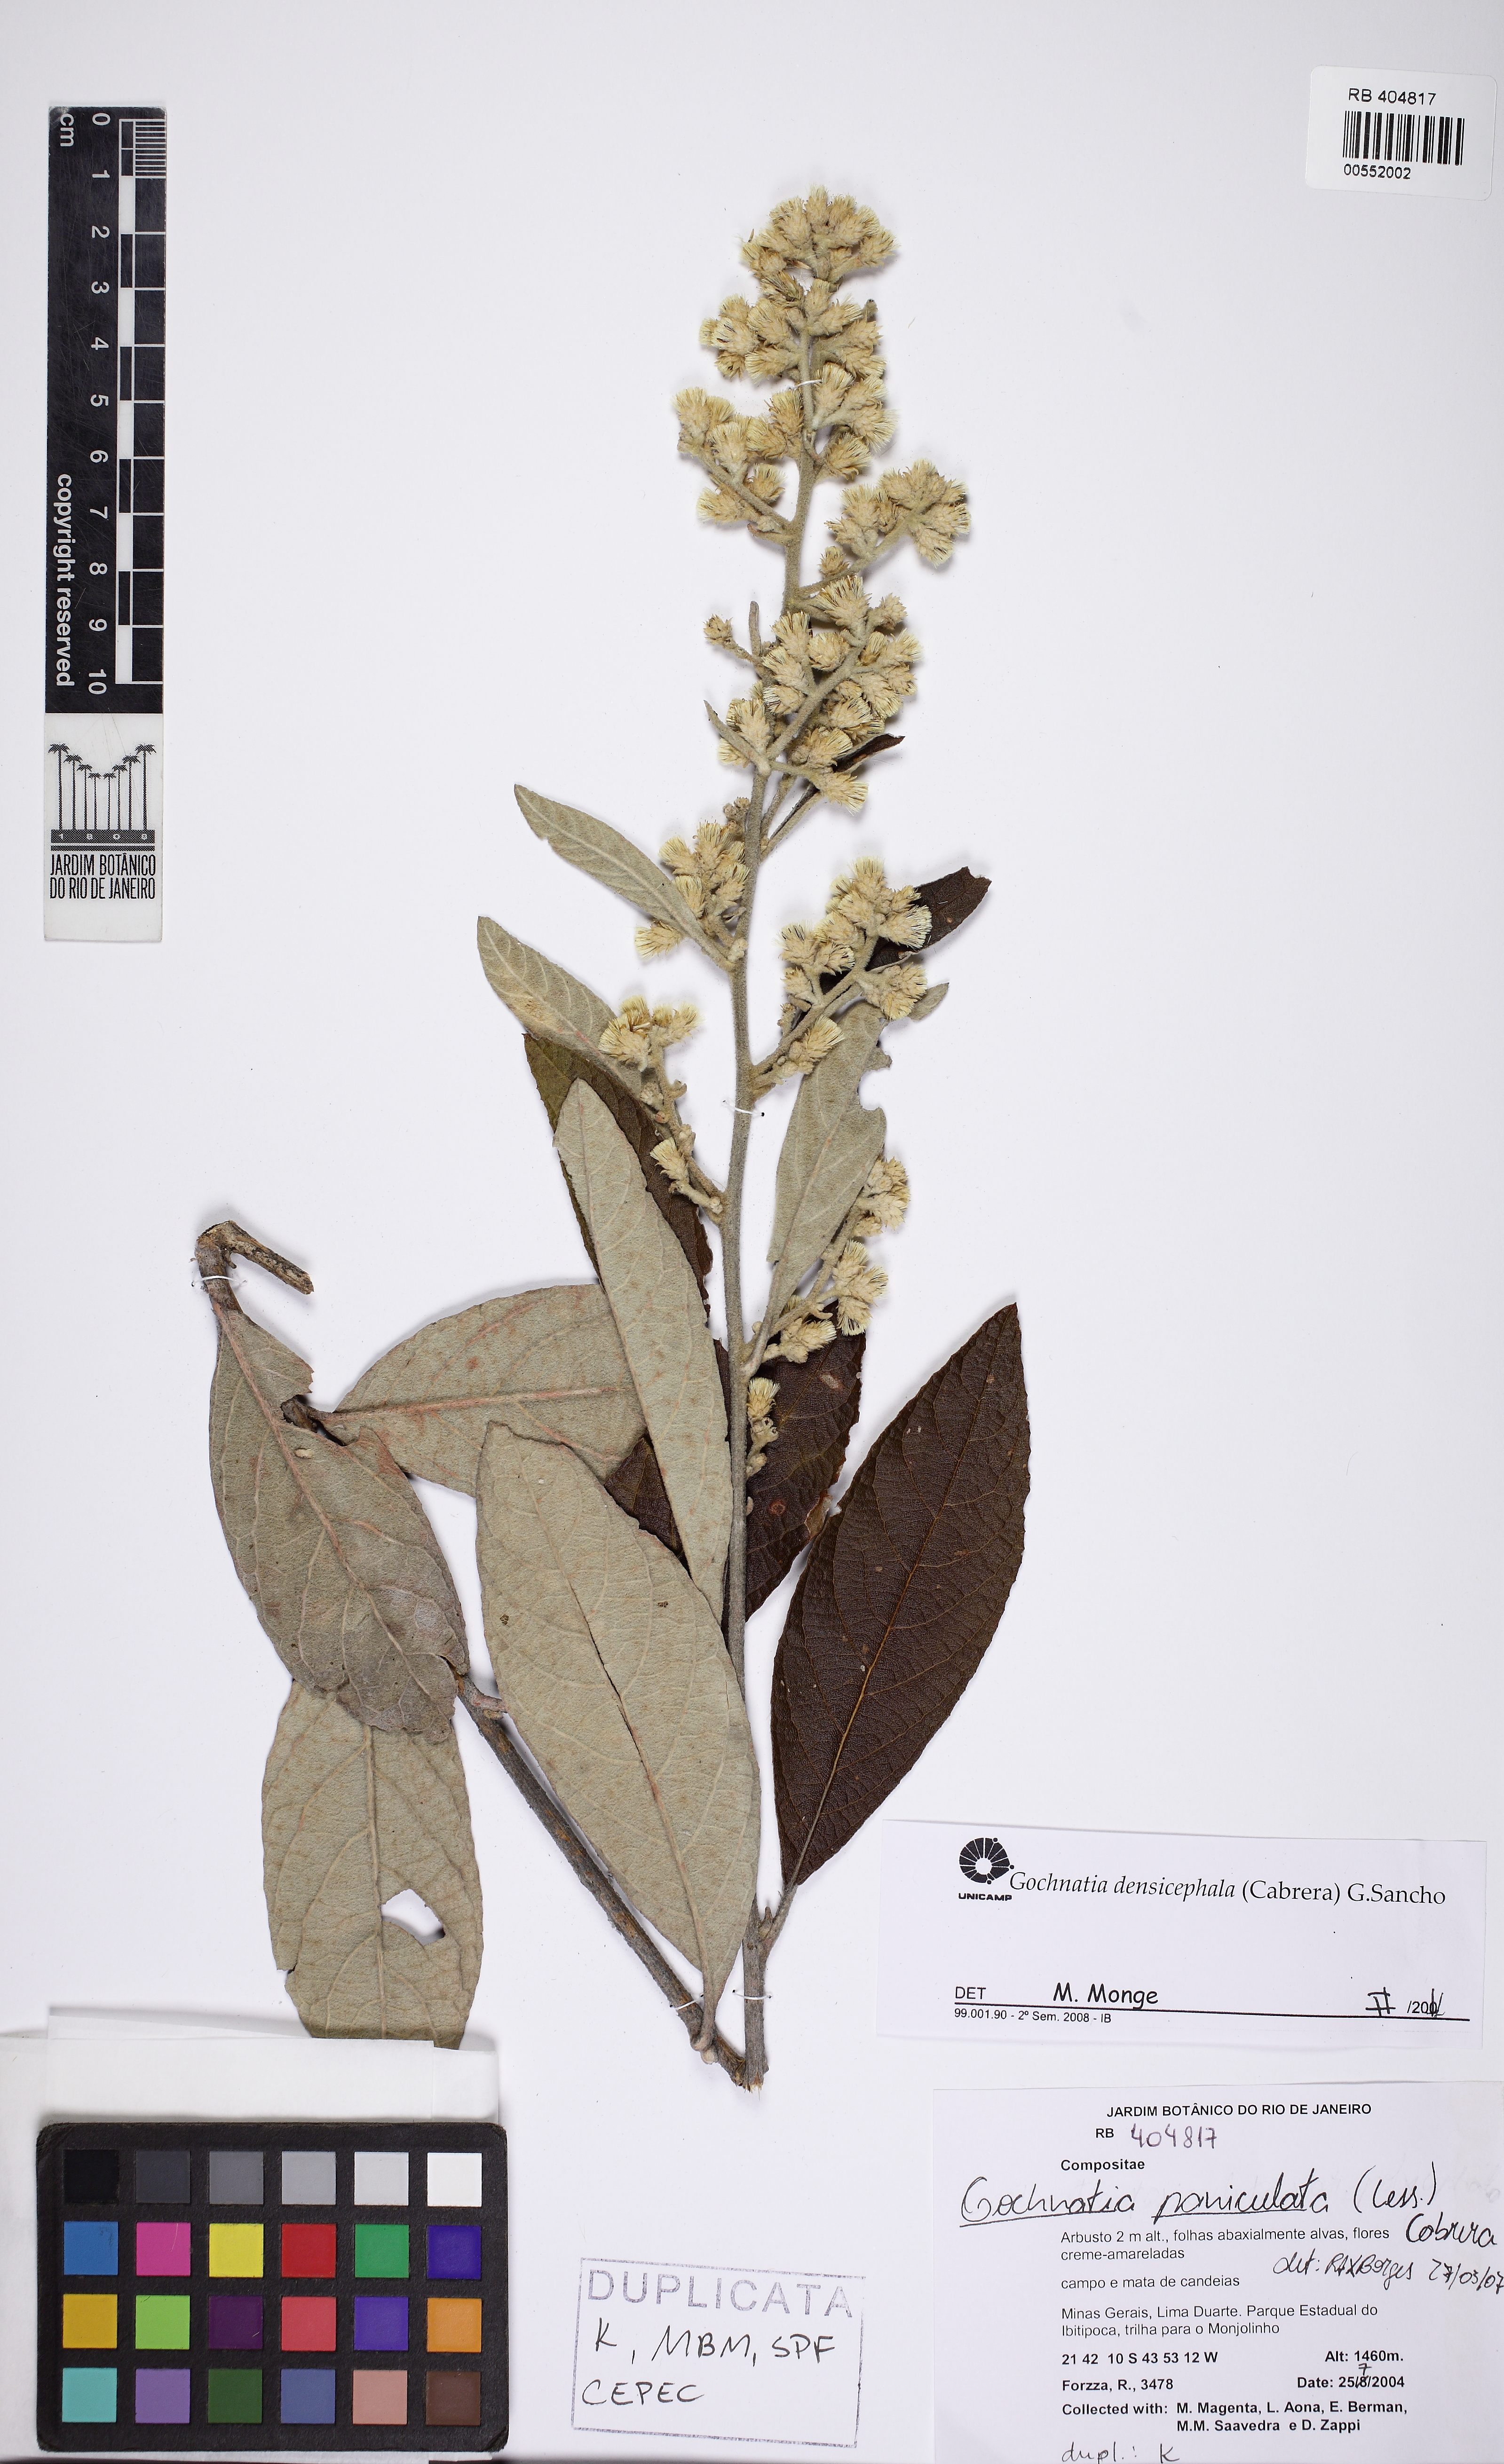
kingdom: Plantae
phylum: Tracheophyta
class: Magnoliopsida
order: Asterales
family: Asteraceae
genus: Moquiniastrum
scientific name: Moquiniastrum densicephalum
